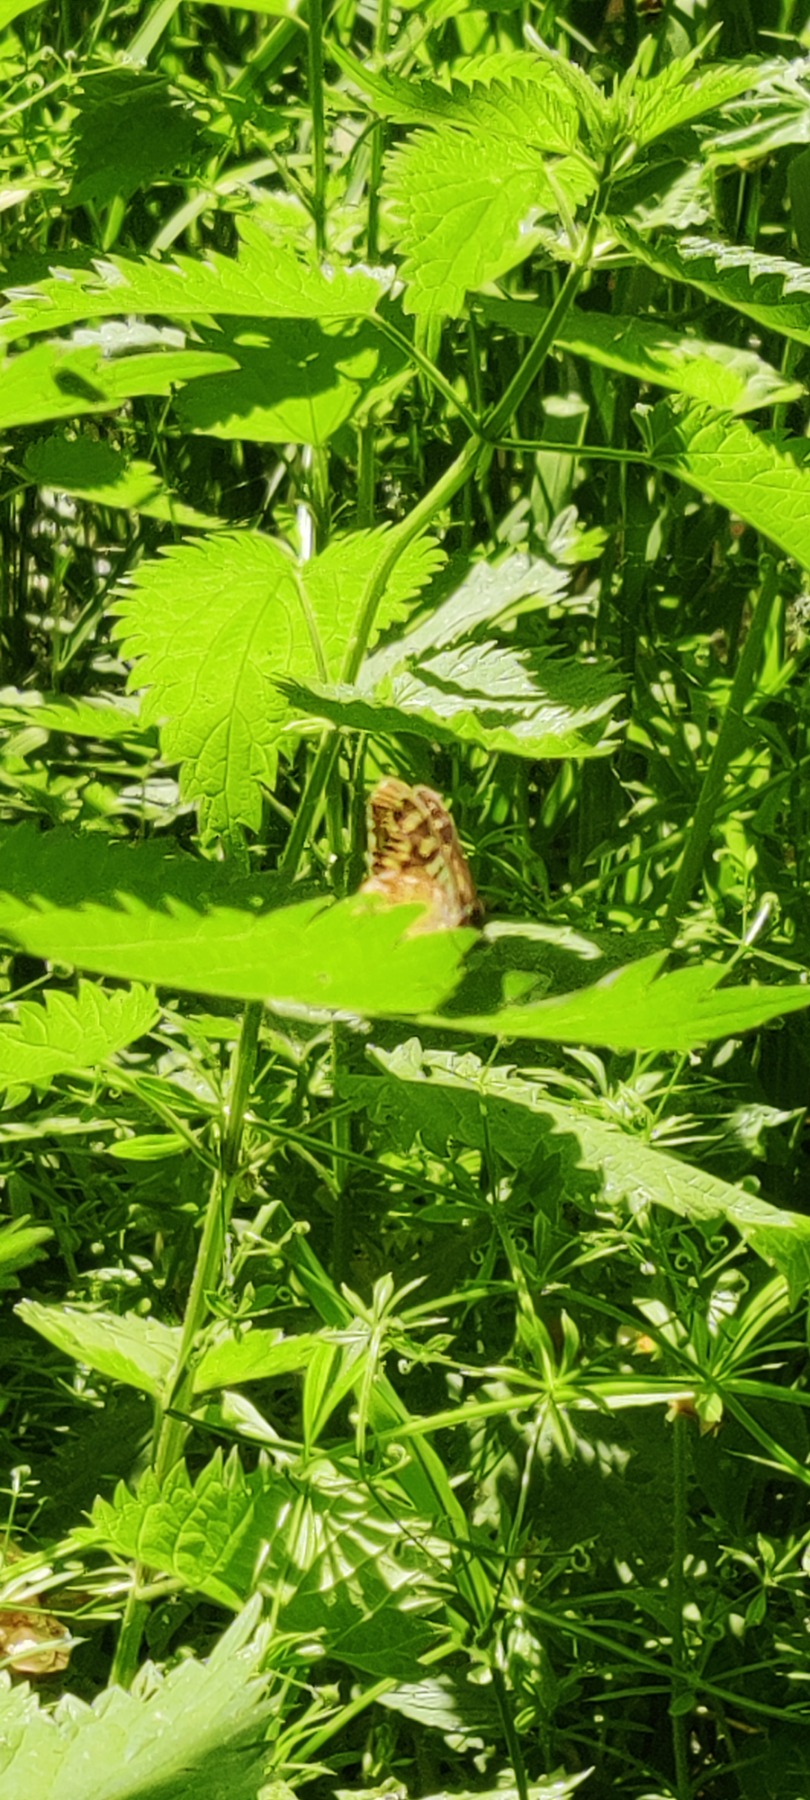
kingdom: Animalia
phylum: Arthropoda
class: Insecta
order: Lepidoptera
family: Nymphalidae
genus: Pararge
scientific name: Pararge aegeria
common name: Skovrandøje
